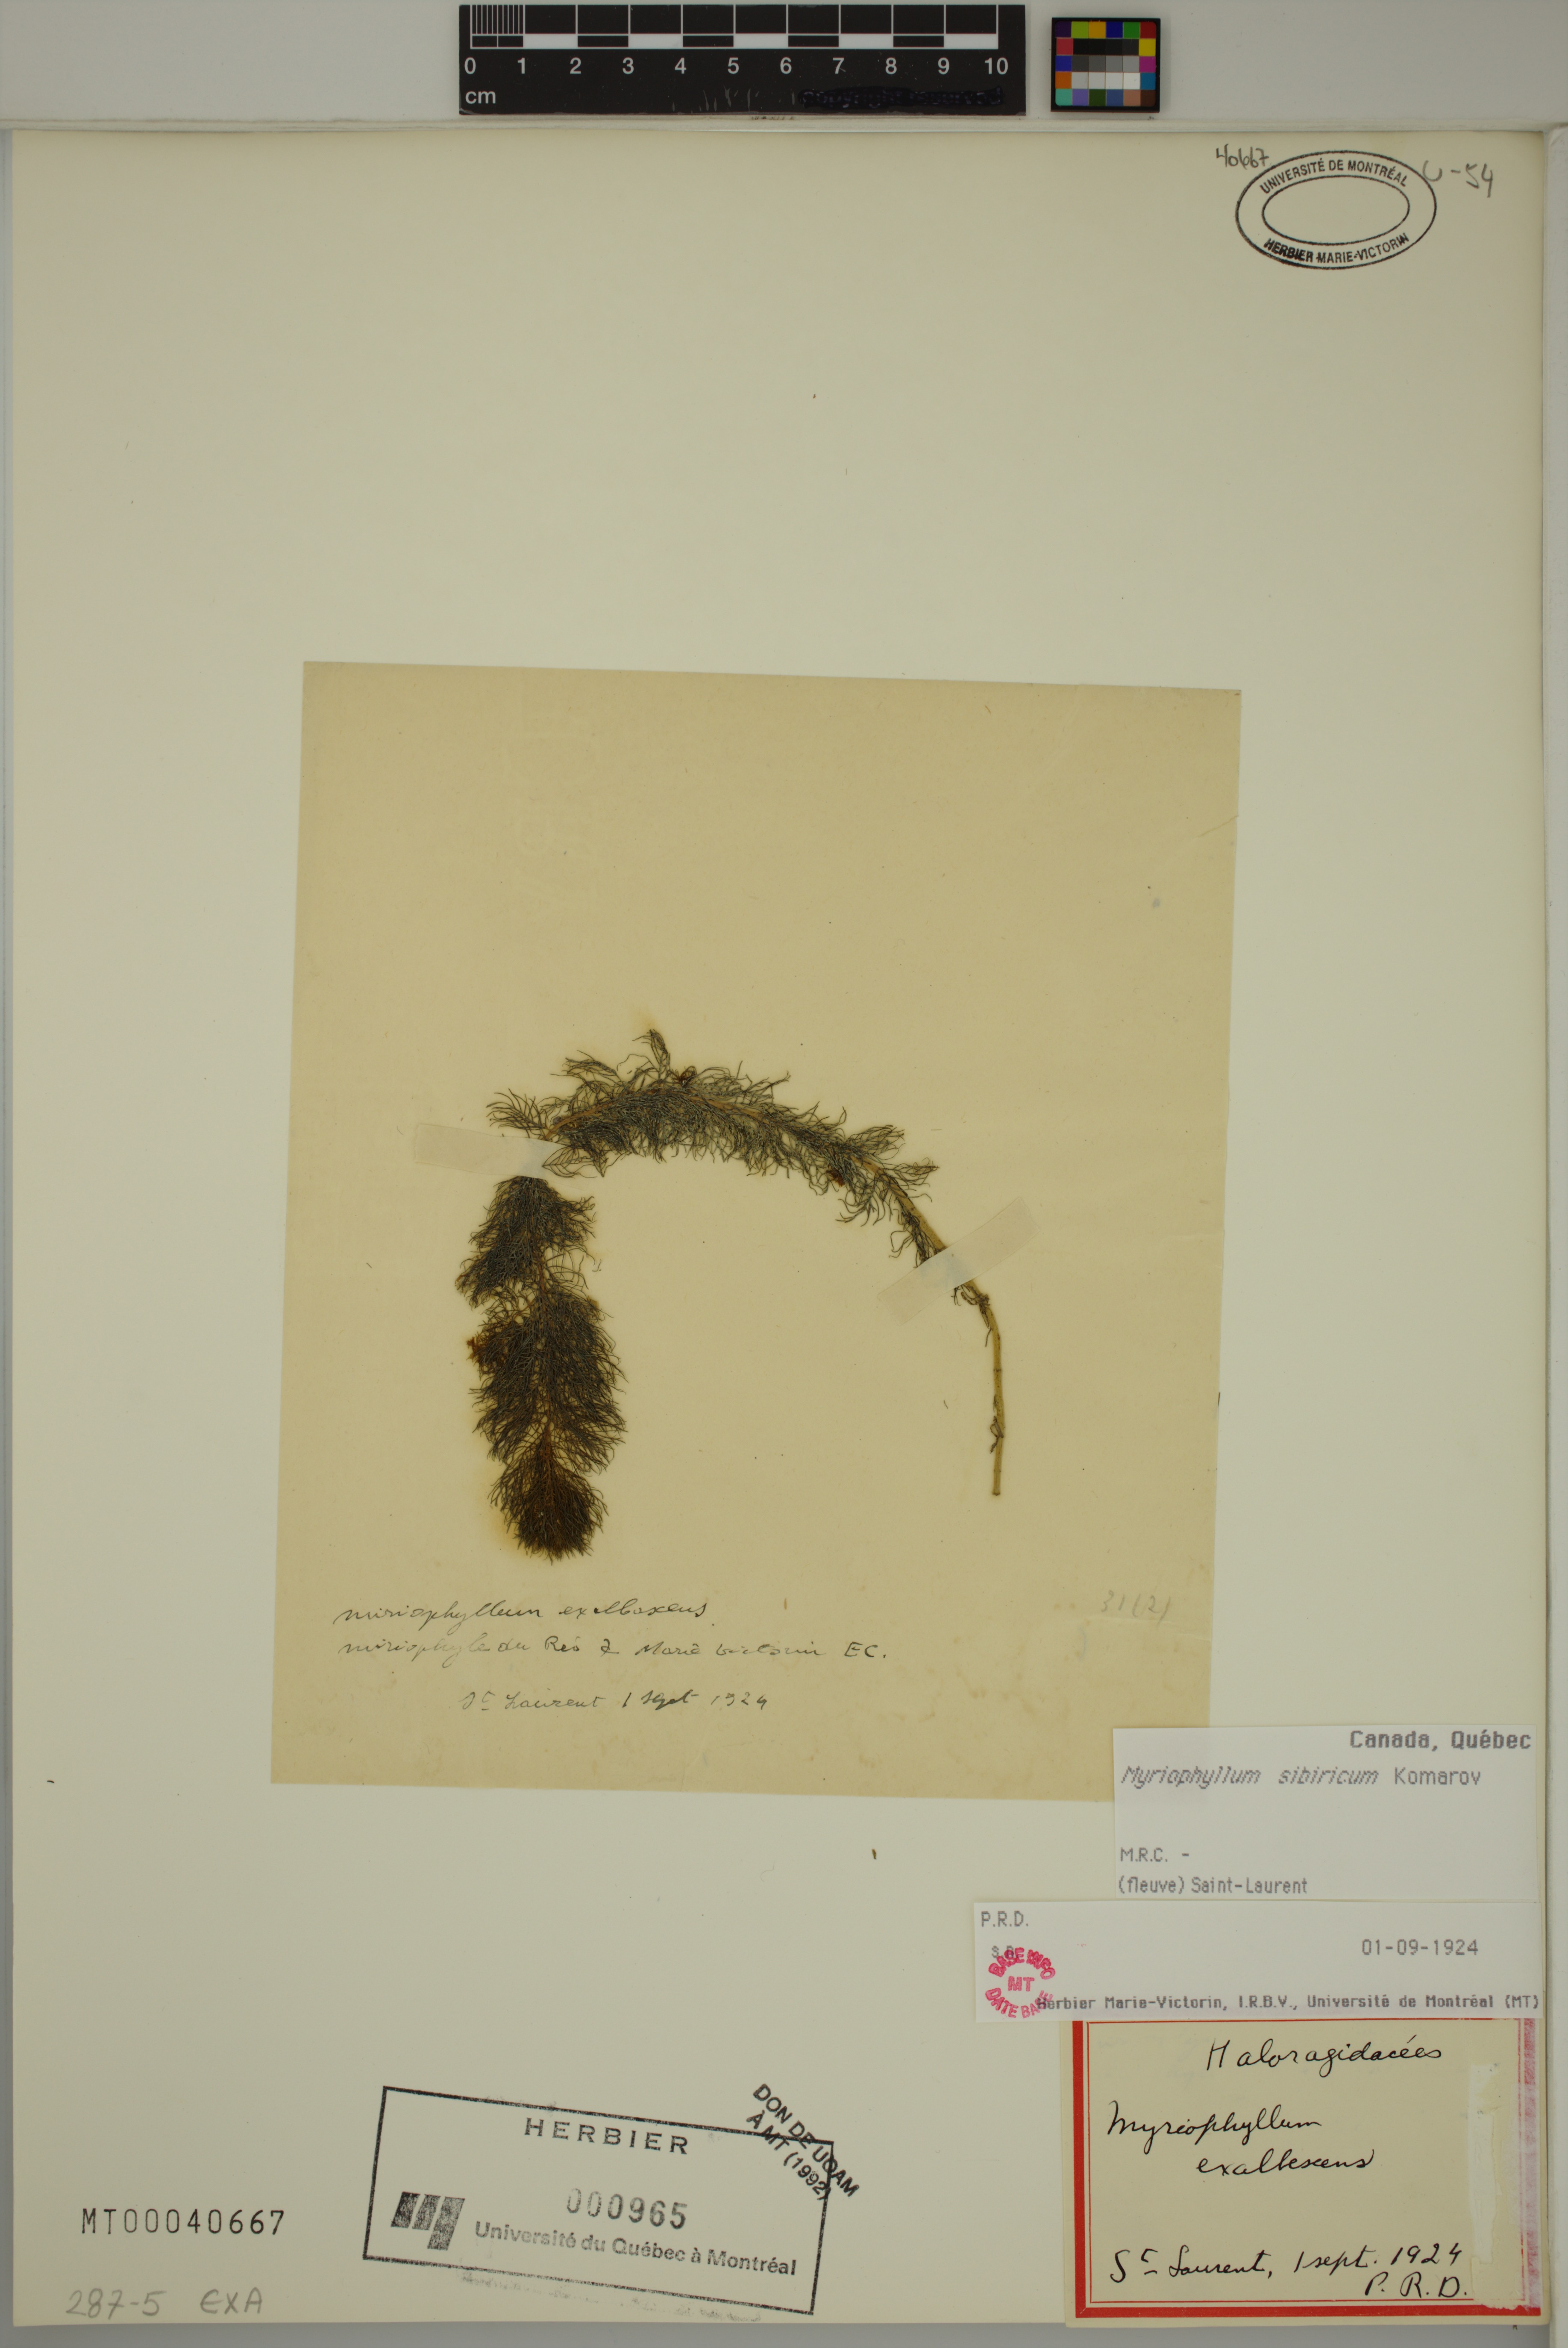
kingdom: Plantae
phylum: Tracheophyta
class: Magnoliopsida
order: Saxifragales
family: Haloragaceae
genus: Myriophyllum
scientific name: Myriophyllum sibiricum
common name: Siberian water-milfoil
